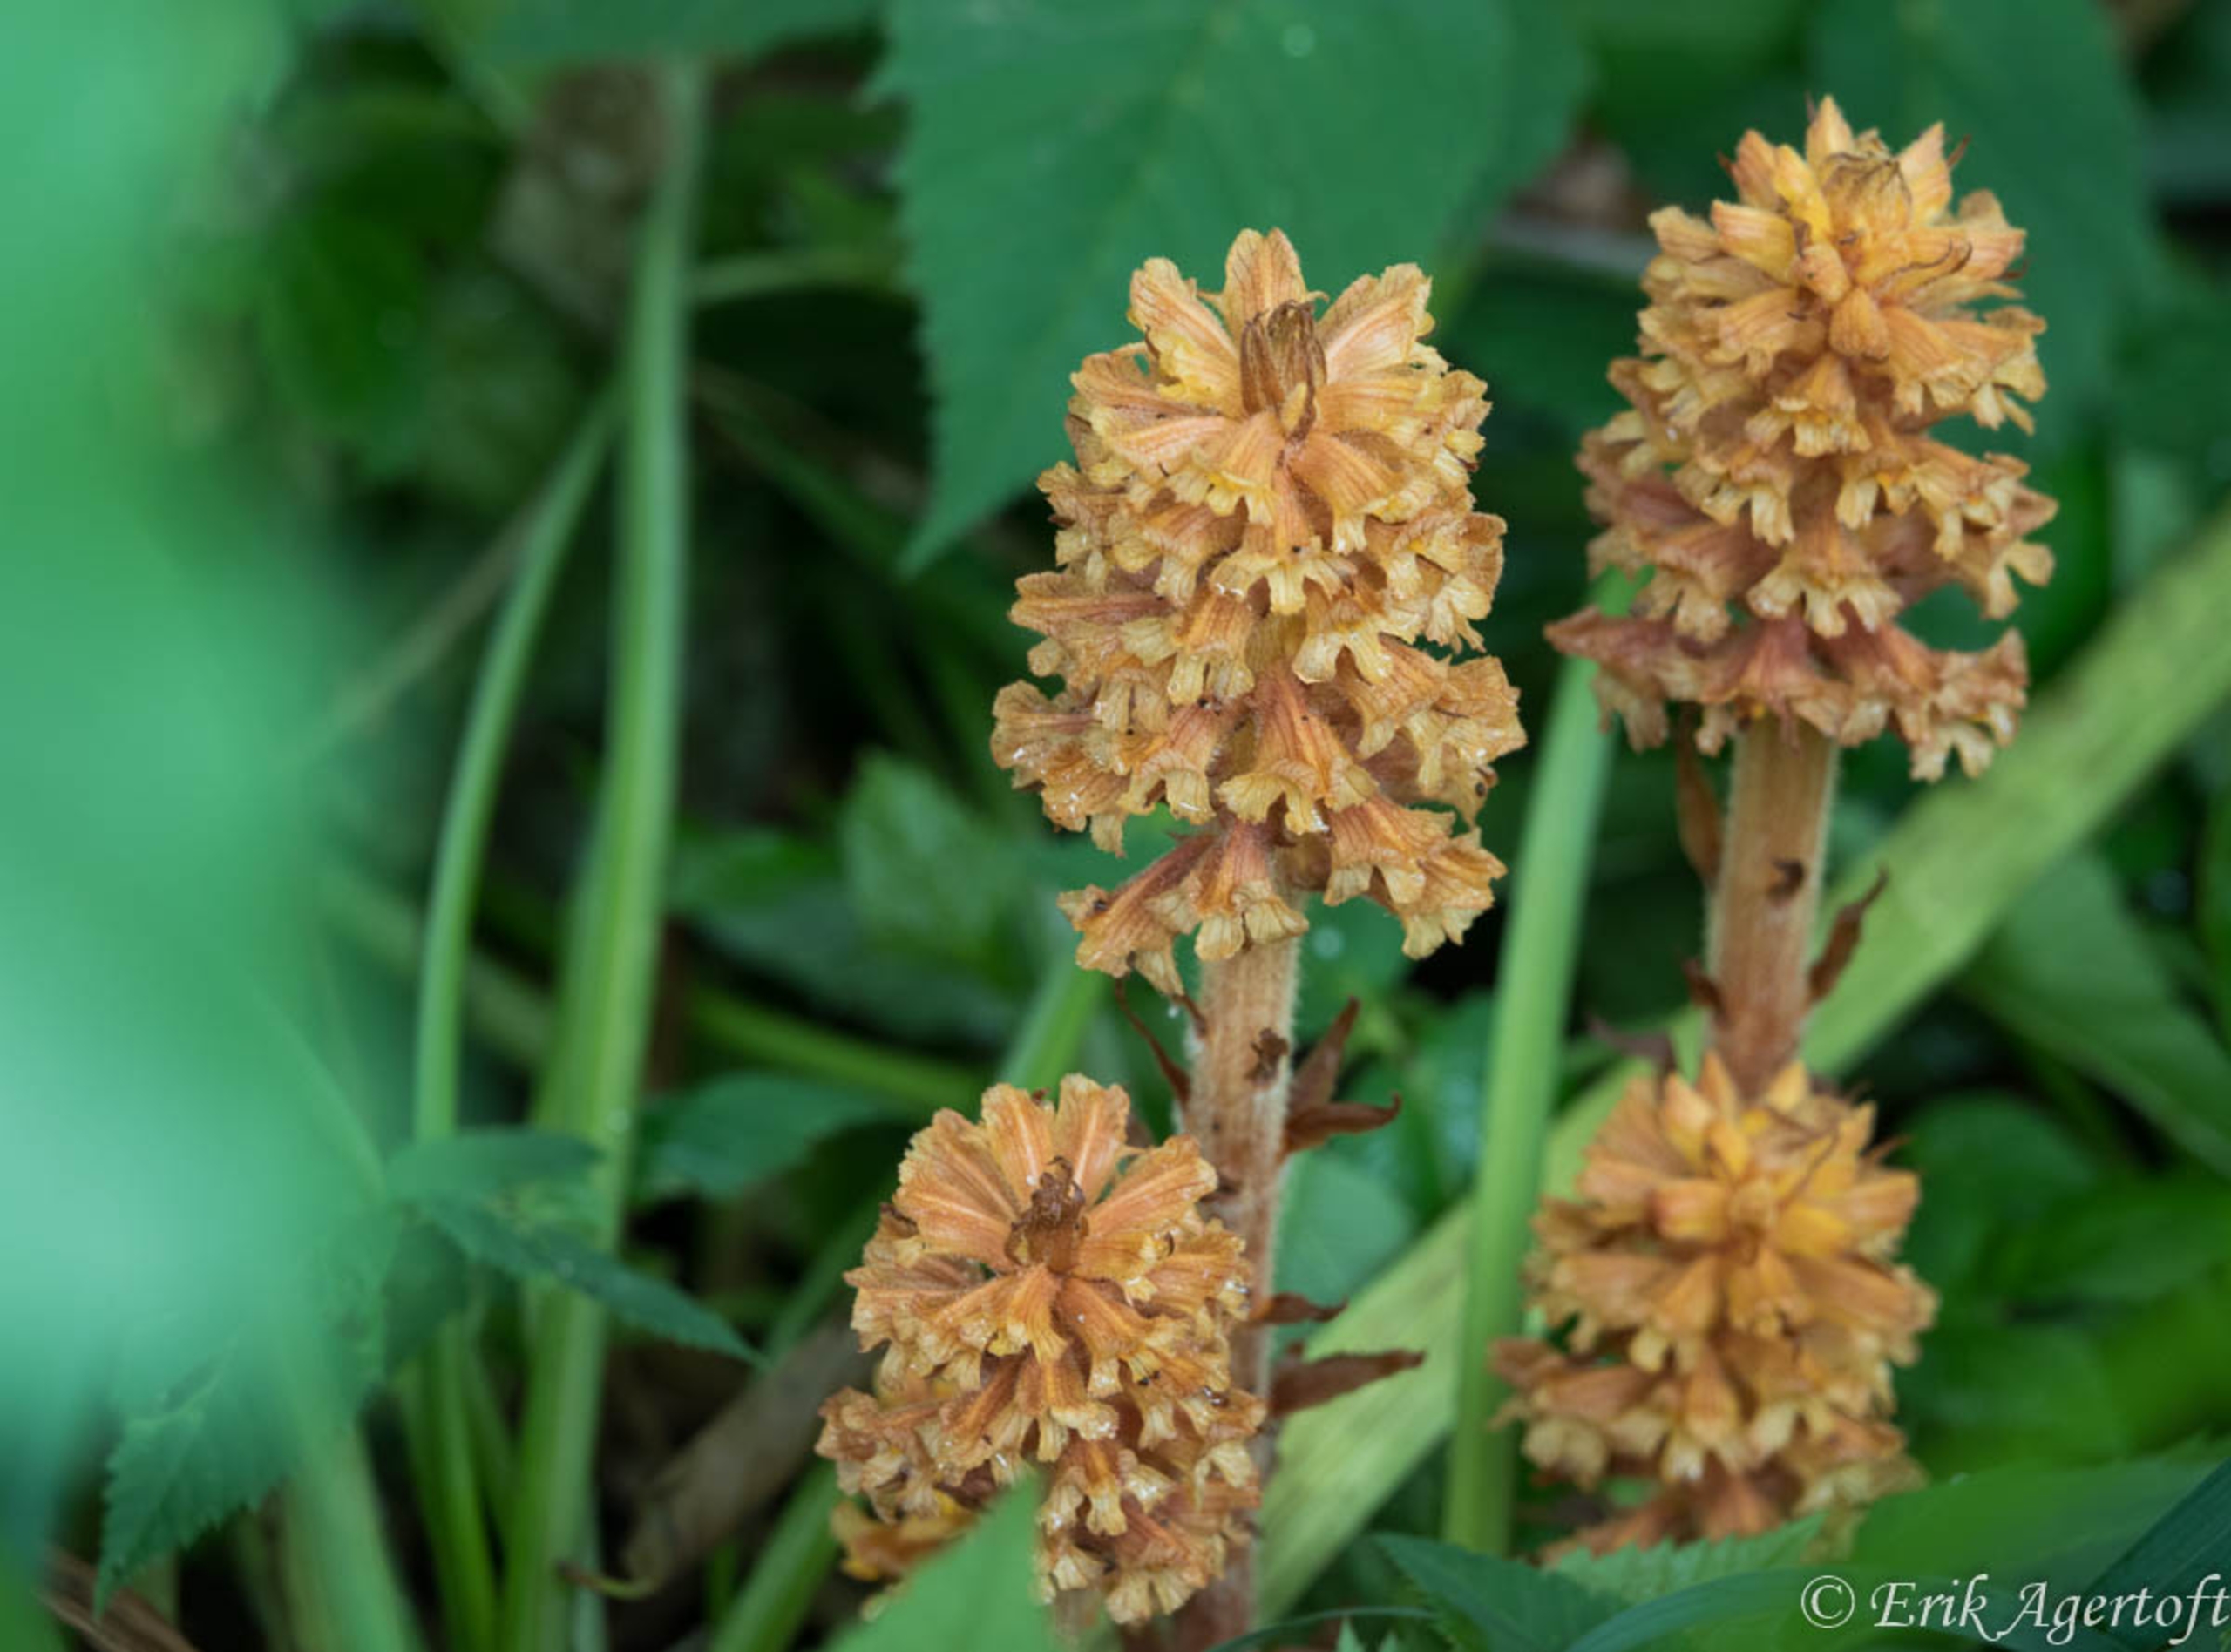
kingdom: Plantae
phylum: Tracheophyta
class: Magnoliopsida
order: Lamiales
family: Orobanchaceae
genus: Orobanche
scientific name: Orobanche flava
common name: Gul gyvelkvæler
